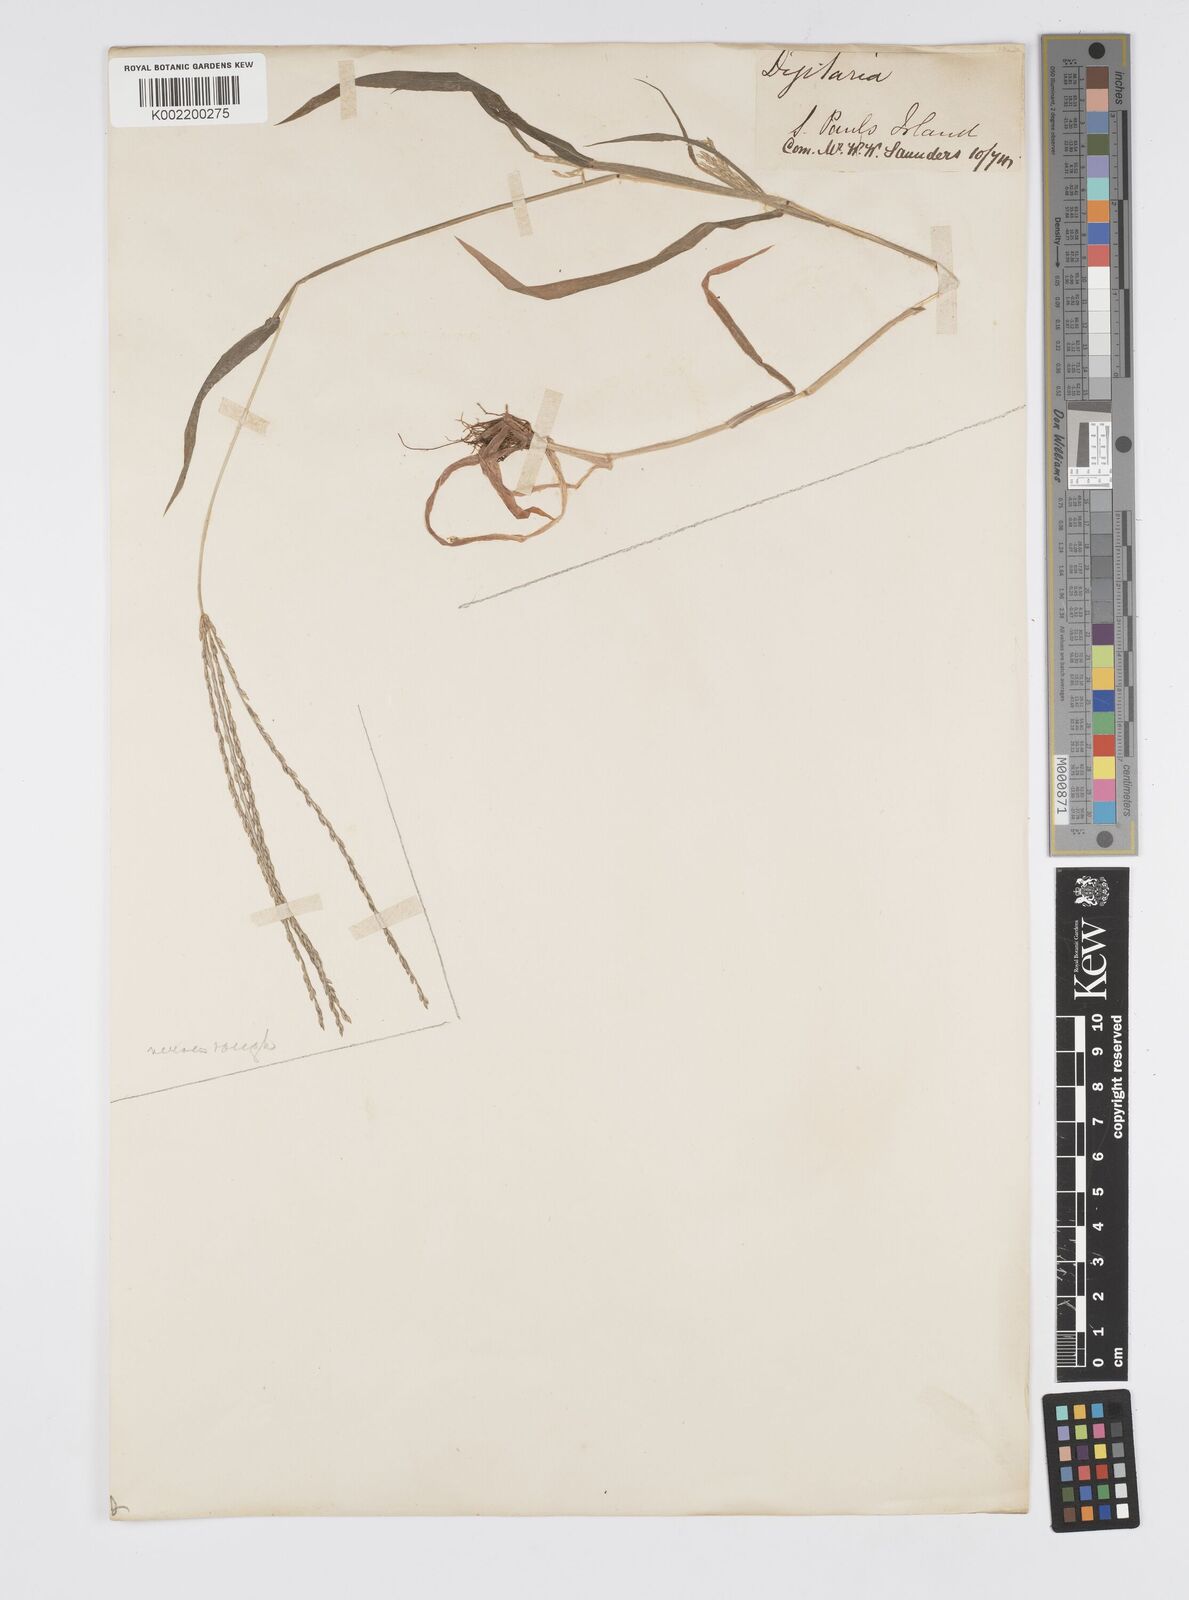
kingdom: Plantae
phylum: Tracheophyta
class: Liliopsida
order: Poales
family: Poaceae
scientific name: Poaceae
